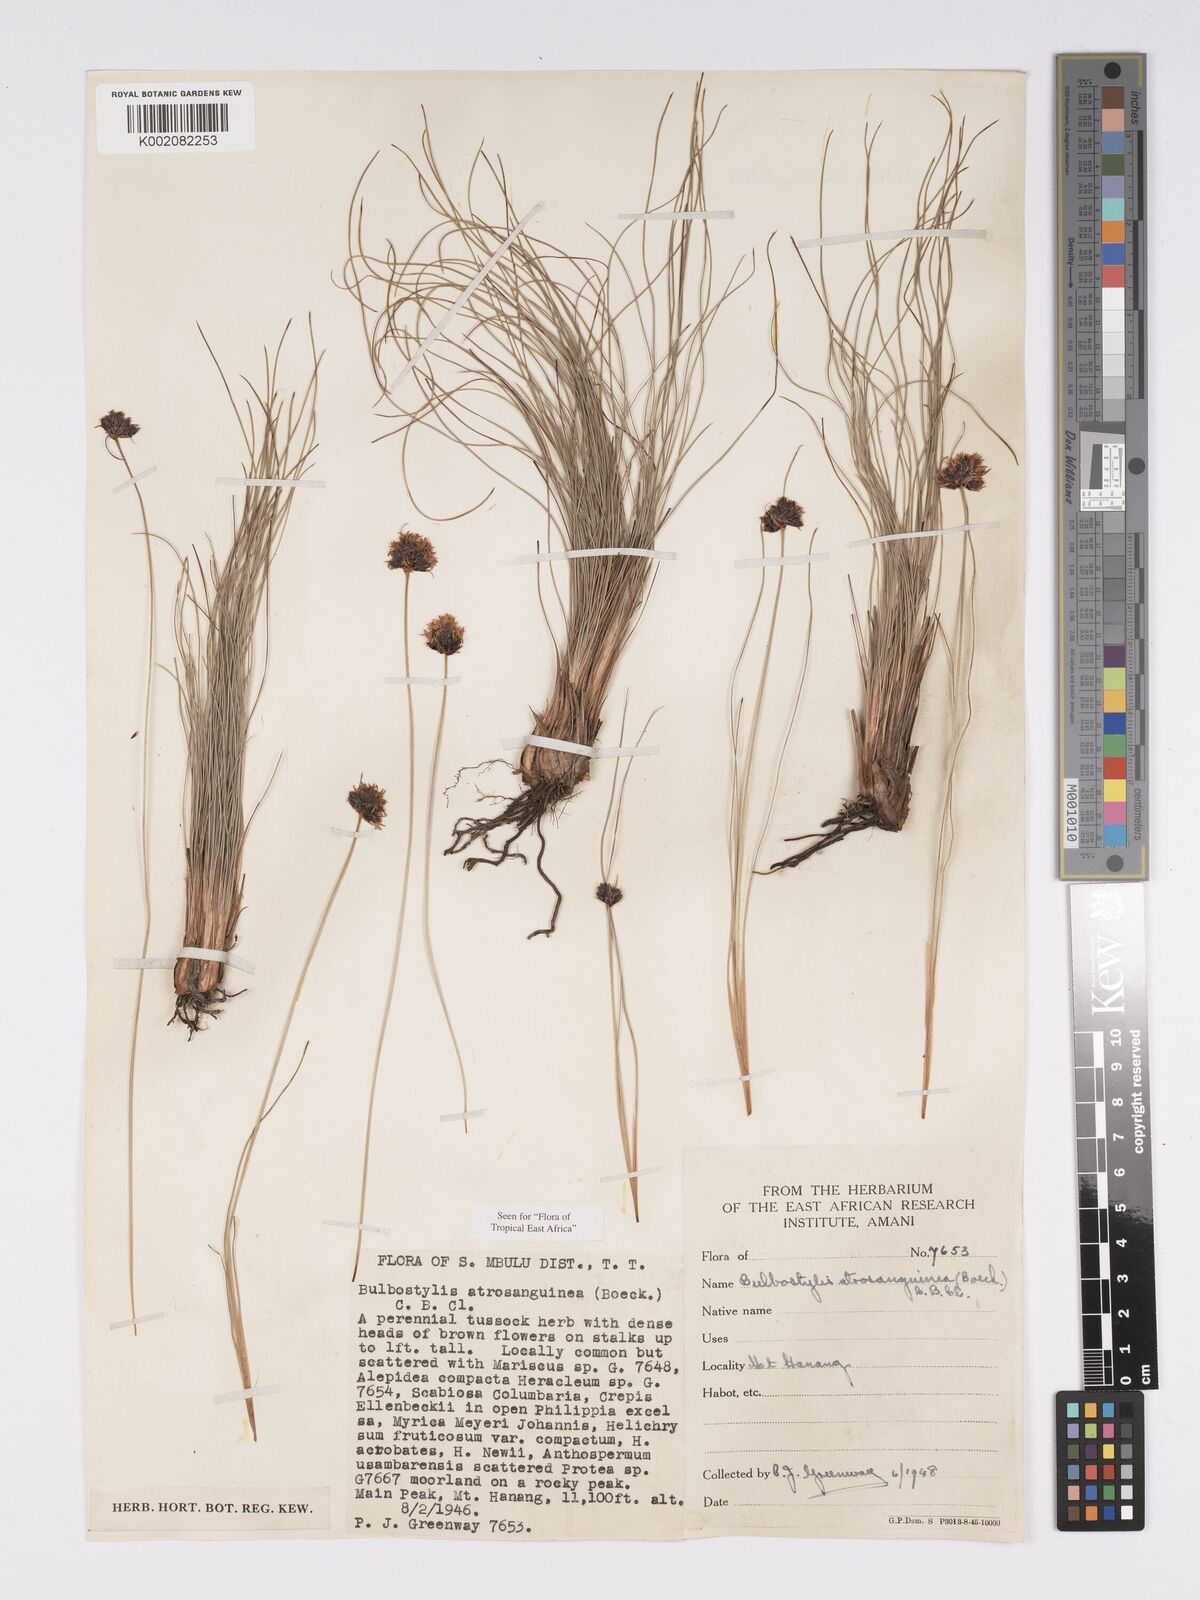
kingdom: Plantae
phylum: Tracheophyta
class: Liliopsida
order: Poales
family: Cyperaceae
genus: Bulbostylis
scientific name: Bulbostylis atrosanguinea
